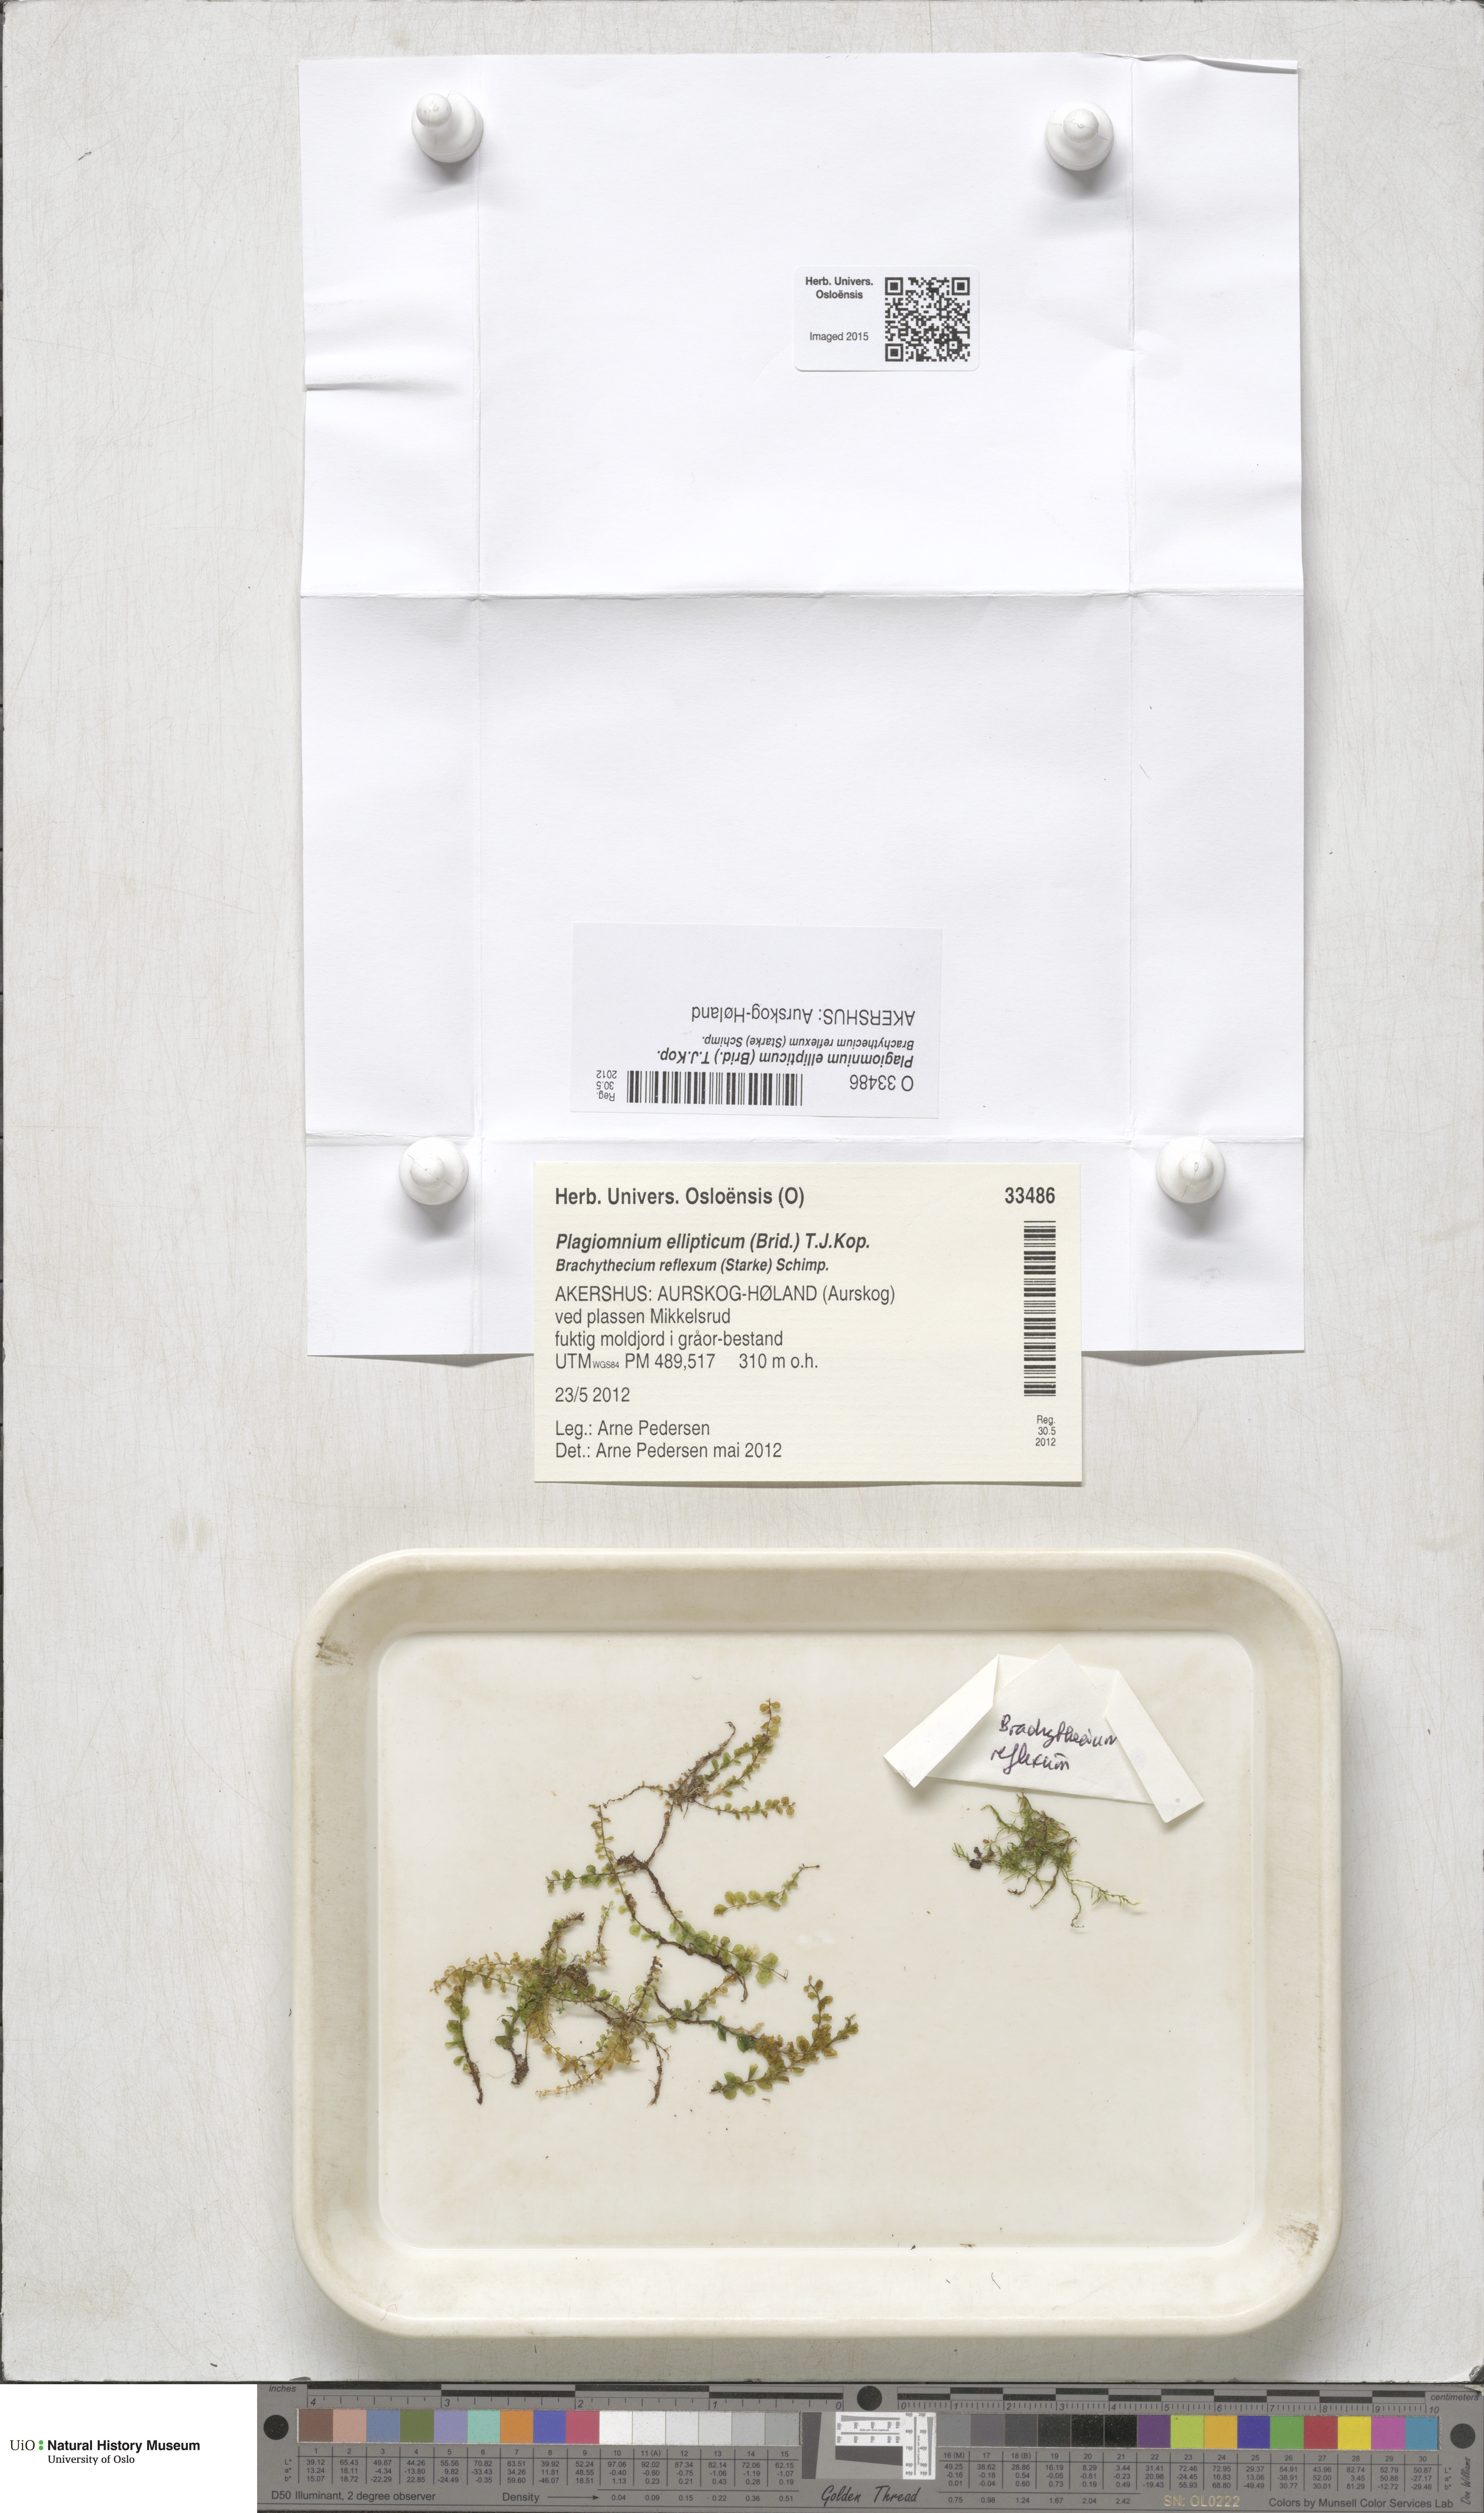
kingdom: Plantae
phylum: Bryophyta
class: Bryopsida
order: Bryales
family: Mniaceae
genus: Plagiomnium
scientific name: Plagiomnium ellipticum
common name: Marsh leafy moss
